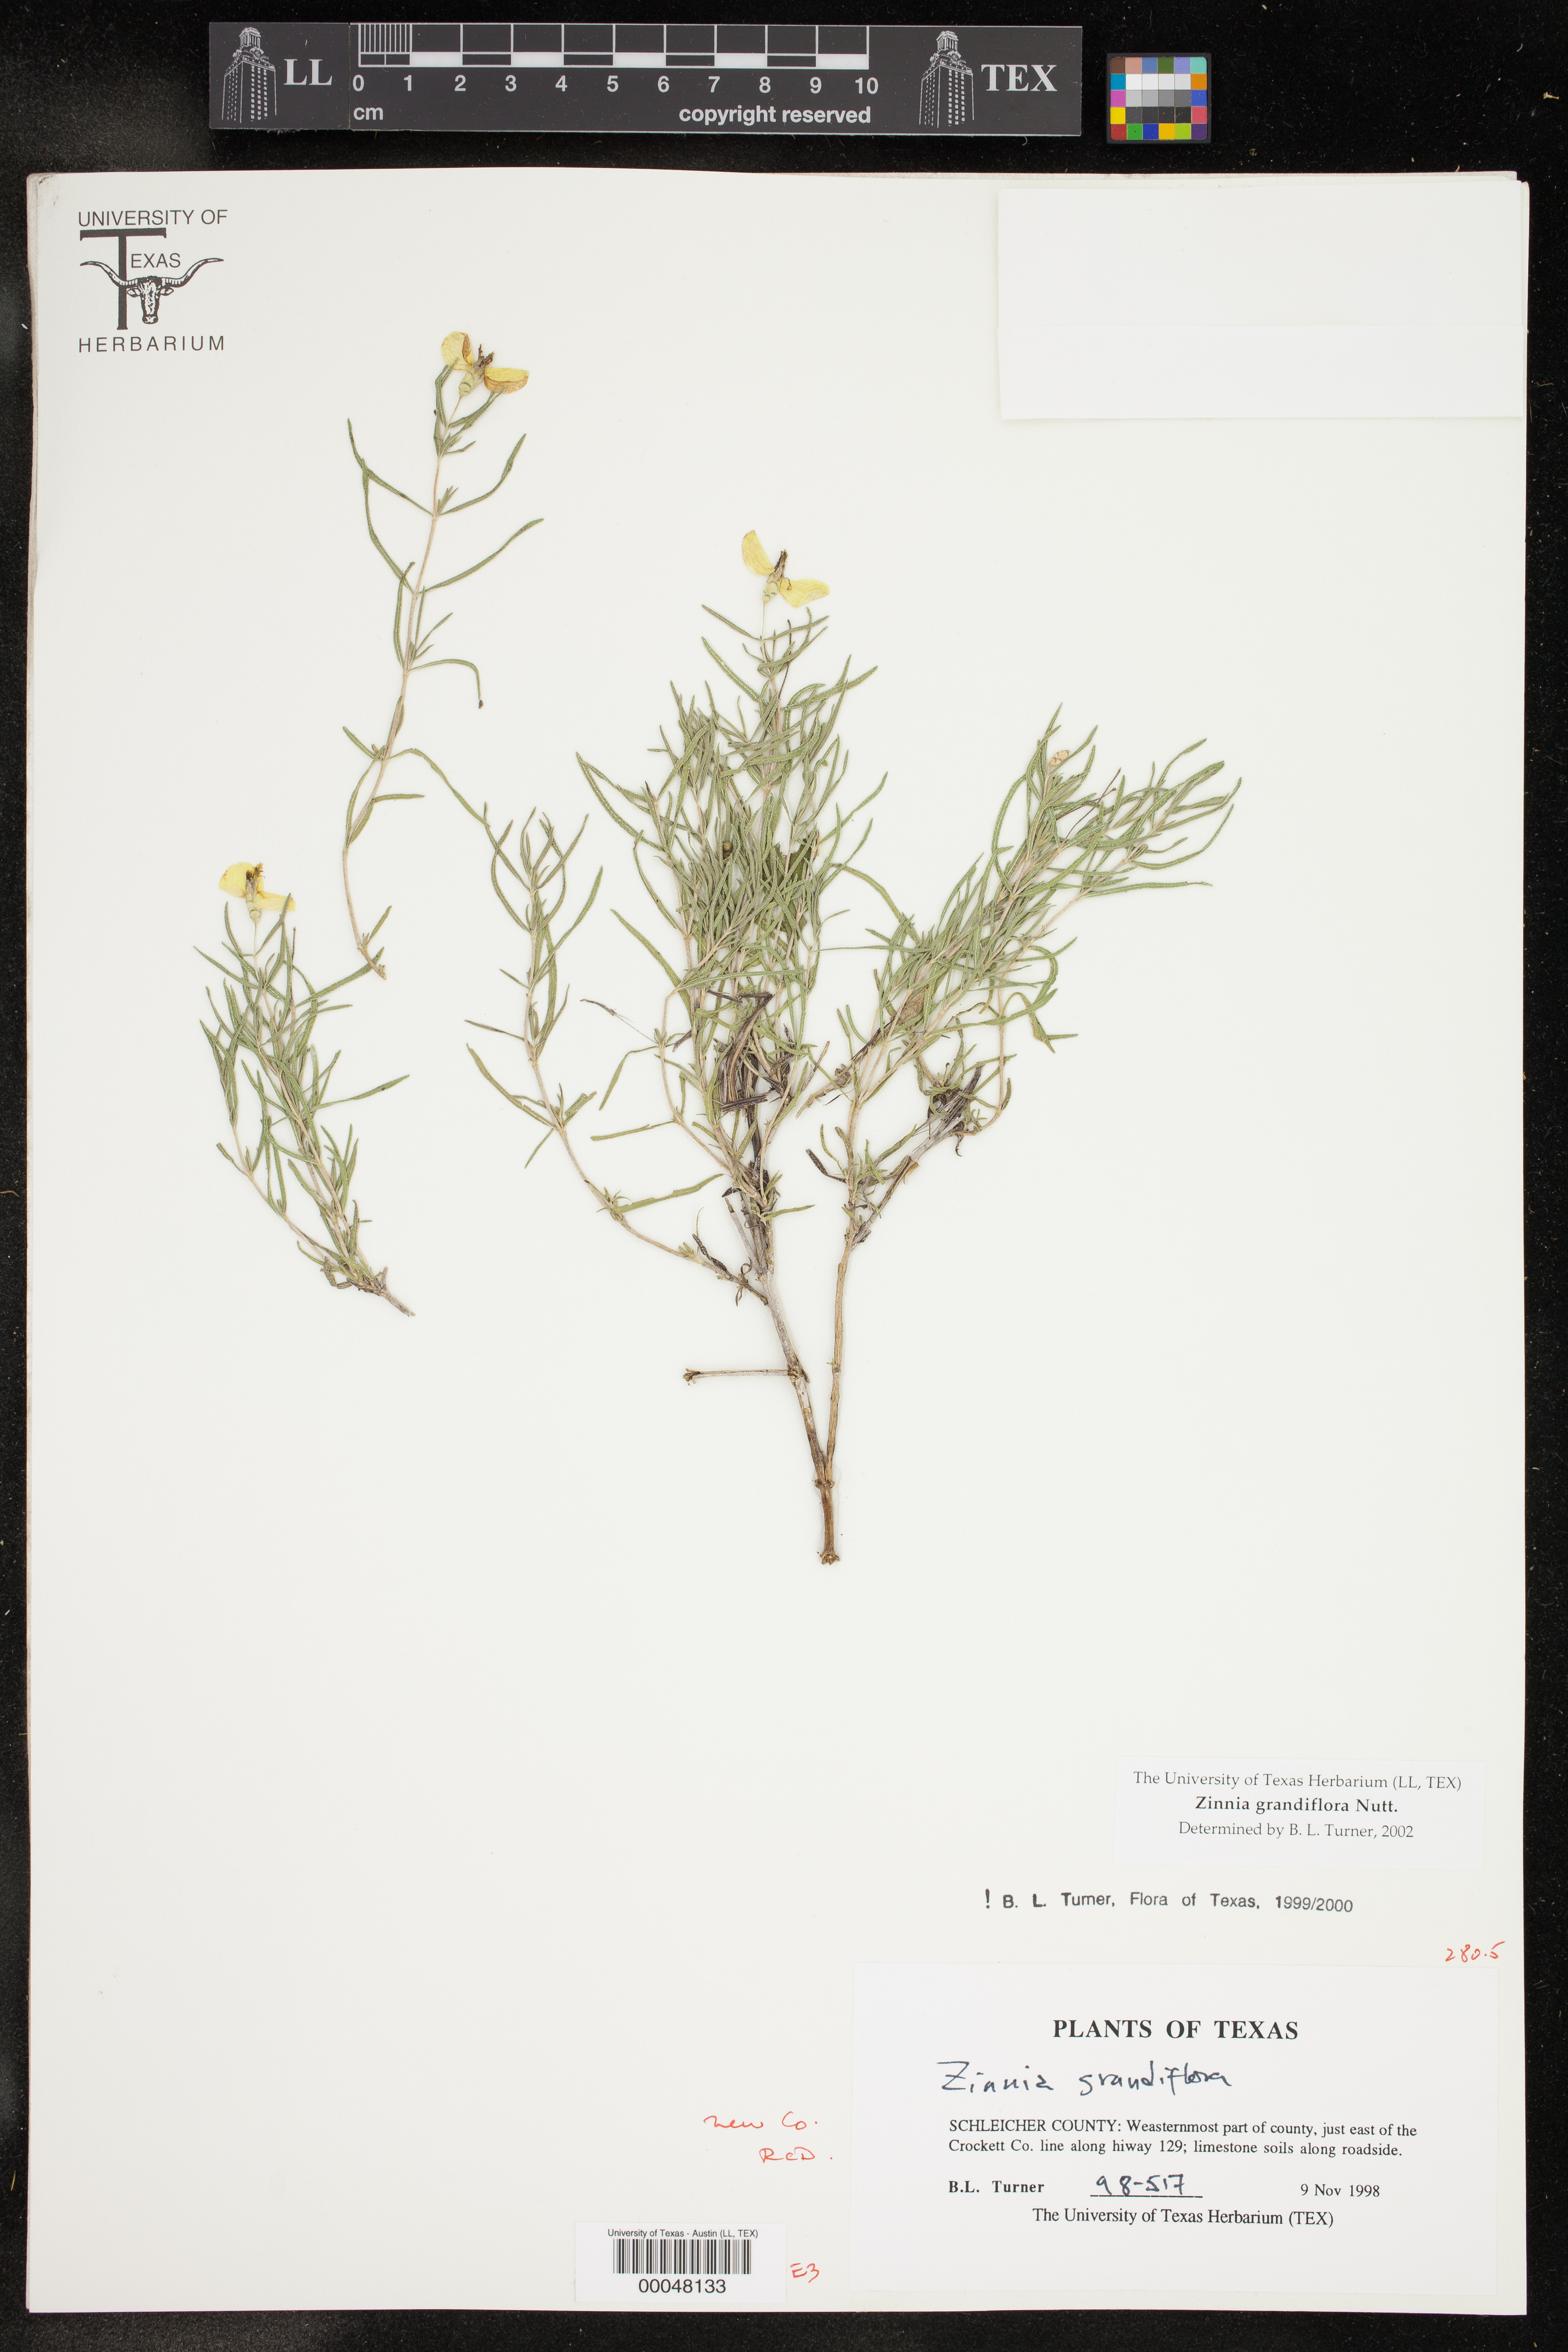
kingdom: Plantae
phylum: Tracheophyta
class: Magnoliopsida
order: Asterales
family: Asteraceae
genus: Zinnia
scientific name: Zinnia grandiflora
